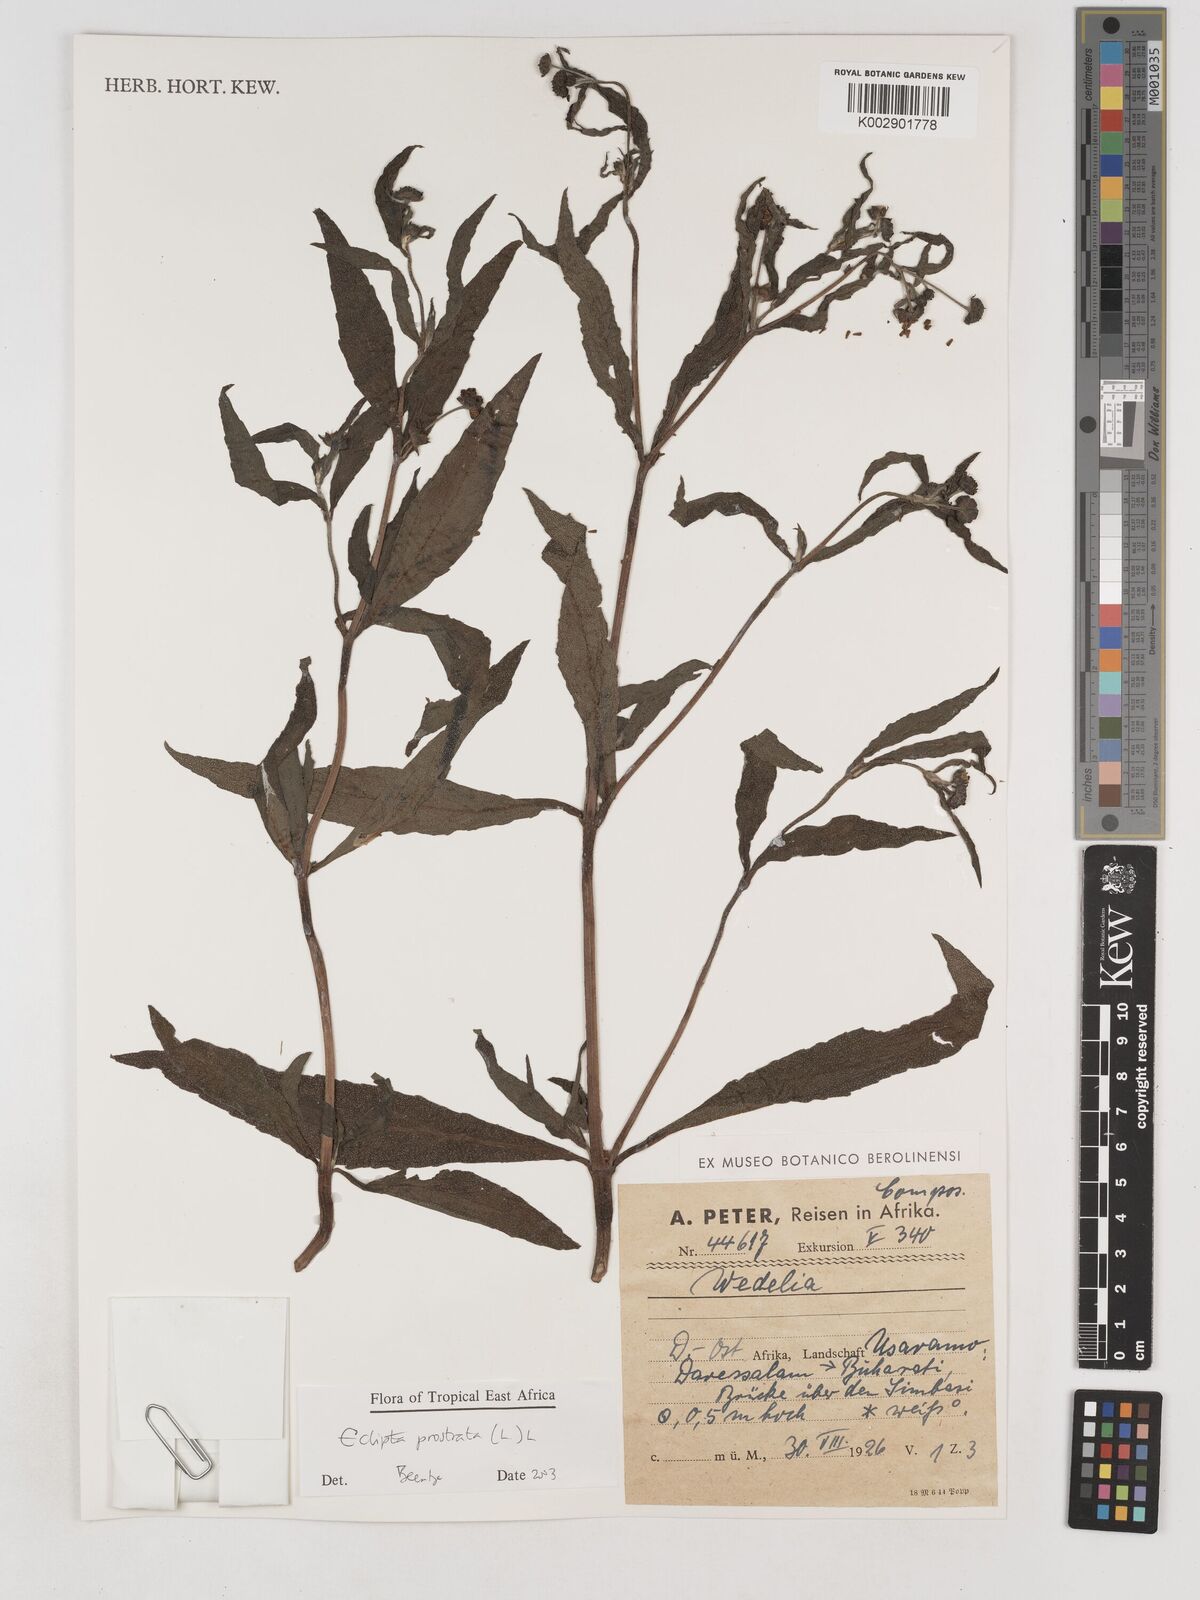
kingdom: Plantae
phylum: Tracheophyta
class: Magnoliopsida
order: Asterales
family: Asteraceae
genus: Eclipta
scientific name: Eclipta alba
